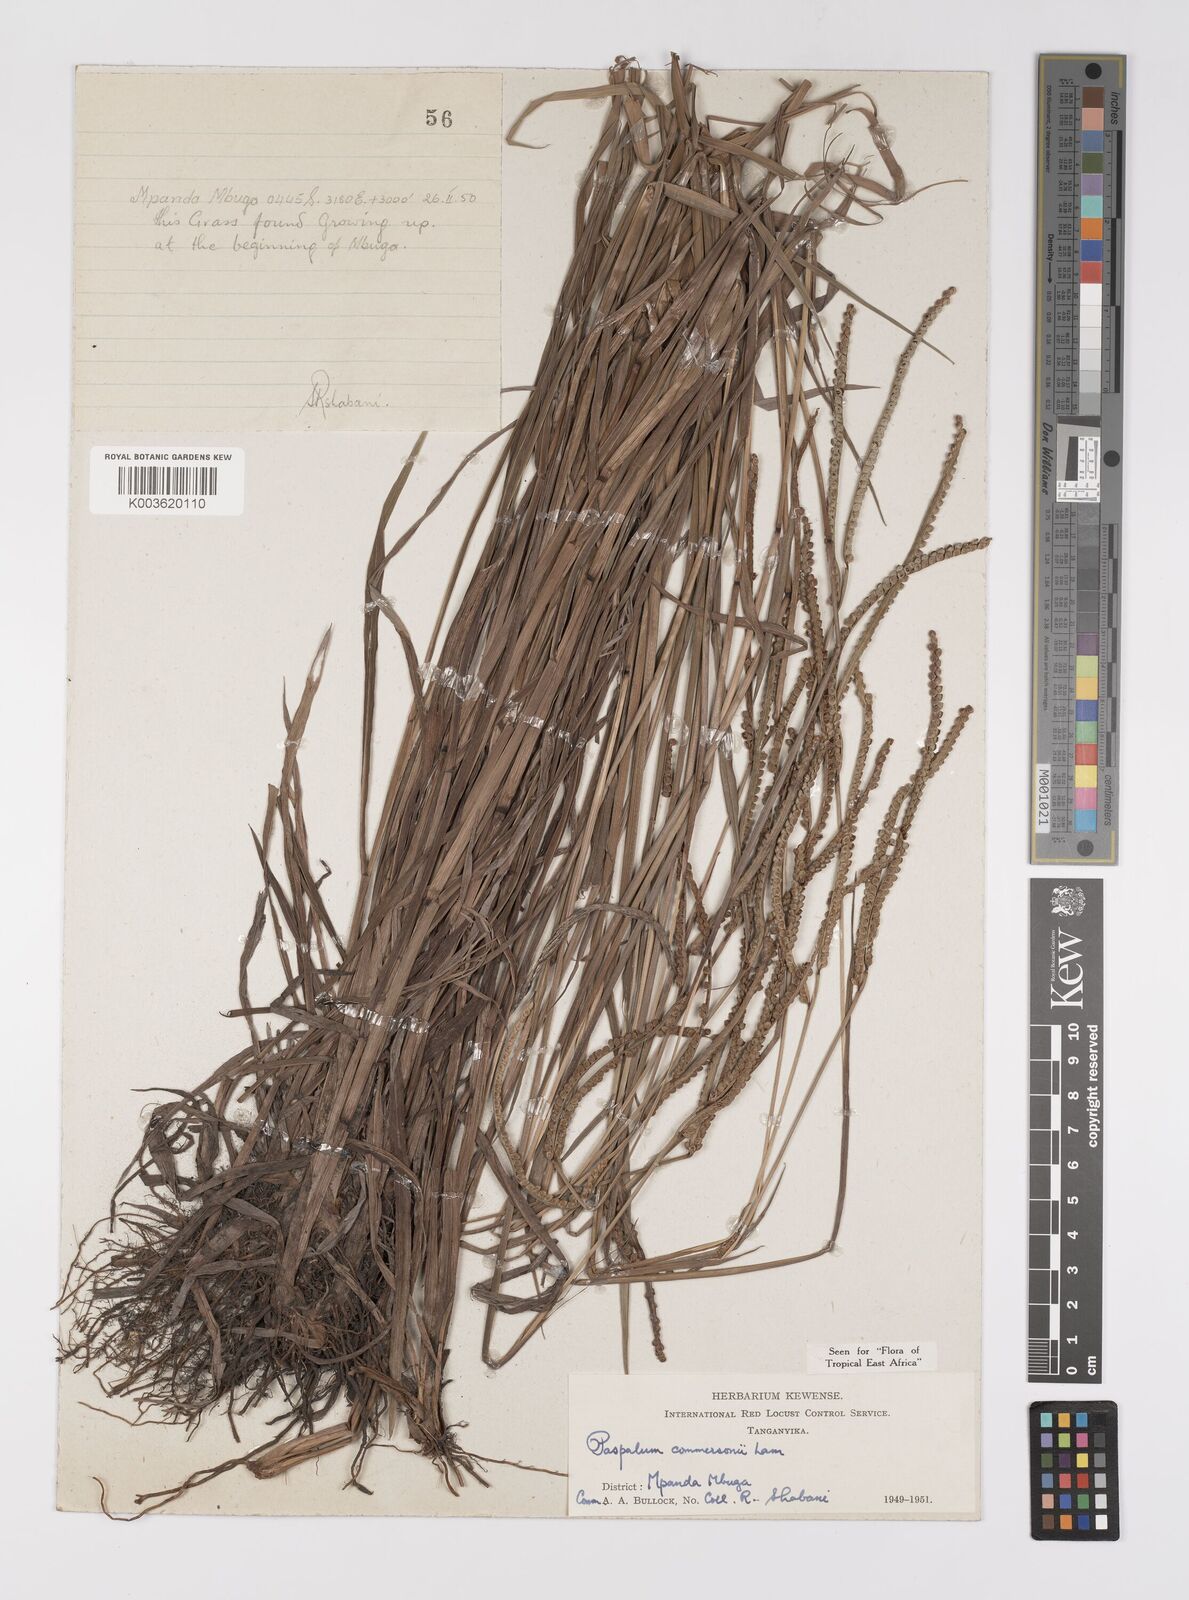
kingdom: Plantae
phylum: Tracheophyta
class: Liliopsida
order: Poales
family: Poaceae
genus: Paspalum
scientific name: Paspalum scrobiculatum
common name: Kodo millet
